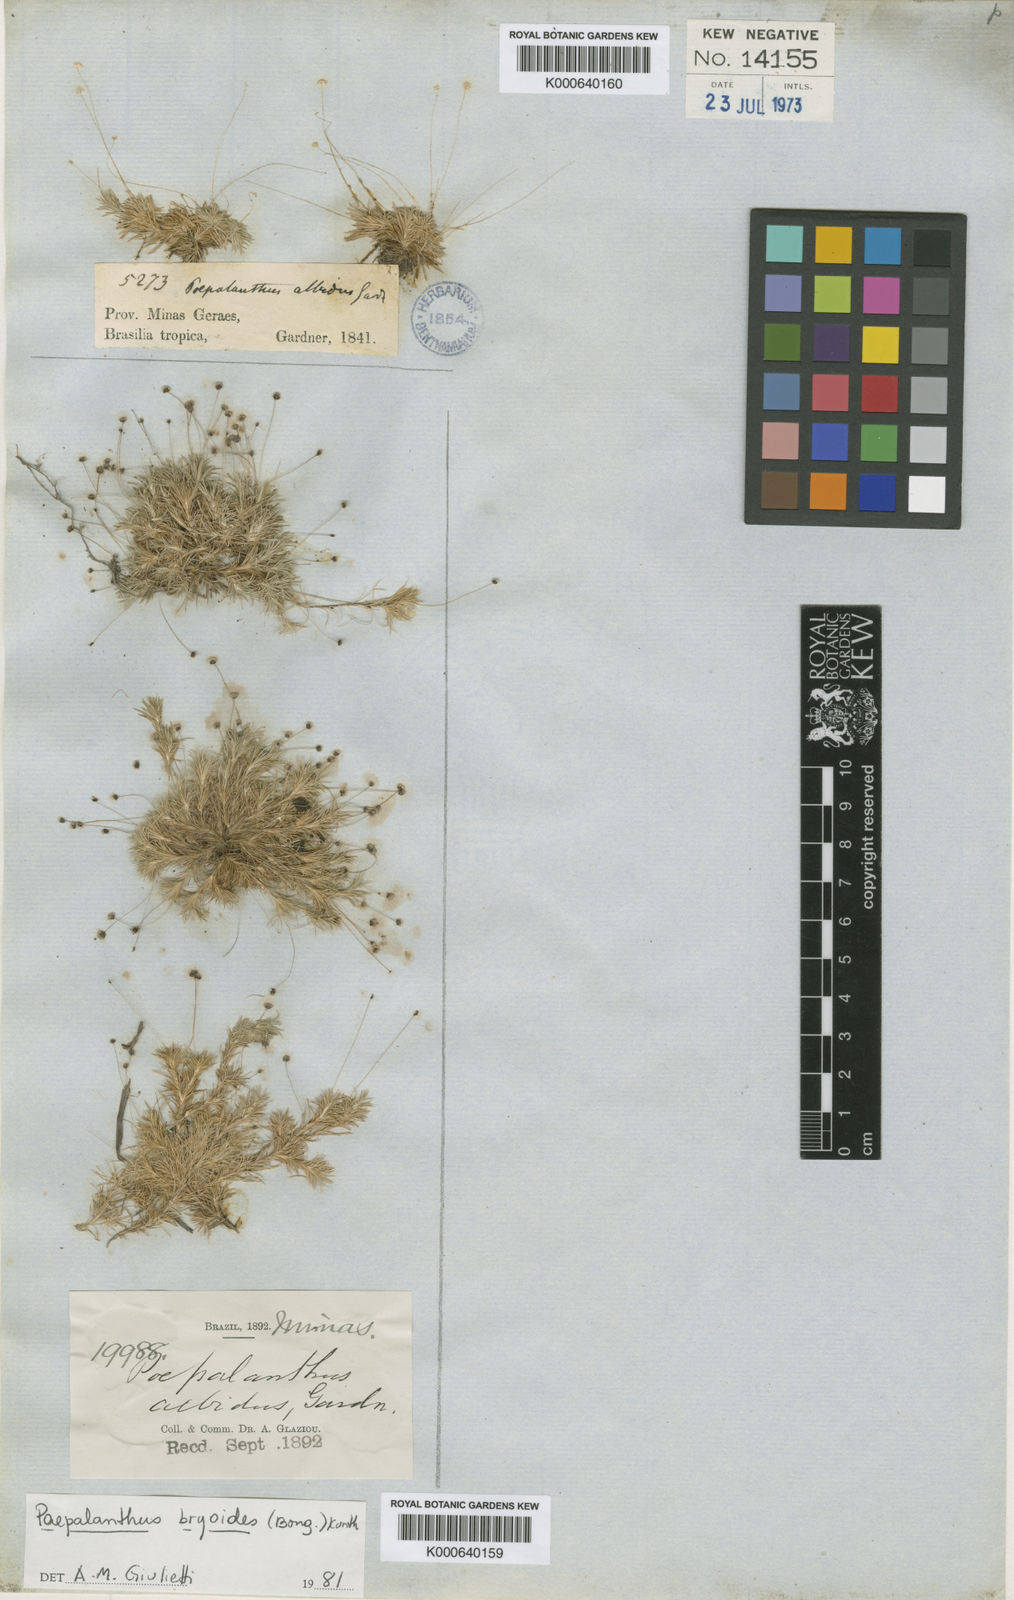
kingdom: Plantae
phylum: Tracheophyta
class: Liliopsida
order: Poales
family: Eriocaulaceae
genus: Paepalanthus
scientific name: Paepalanthus albidus
